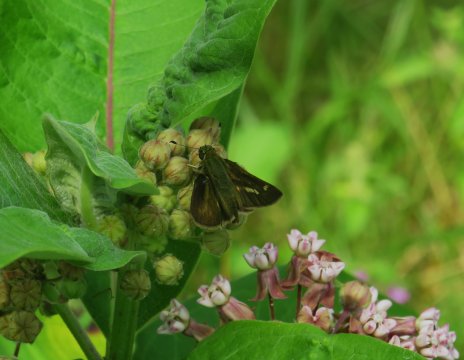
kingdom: Animalia
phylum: Arthropoda
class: Insecta
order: Lepidoptera
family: Hesperiidae
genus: Vernia
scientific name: Vernia verna
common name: Little Glassywing
